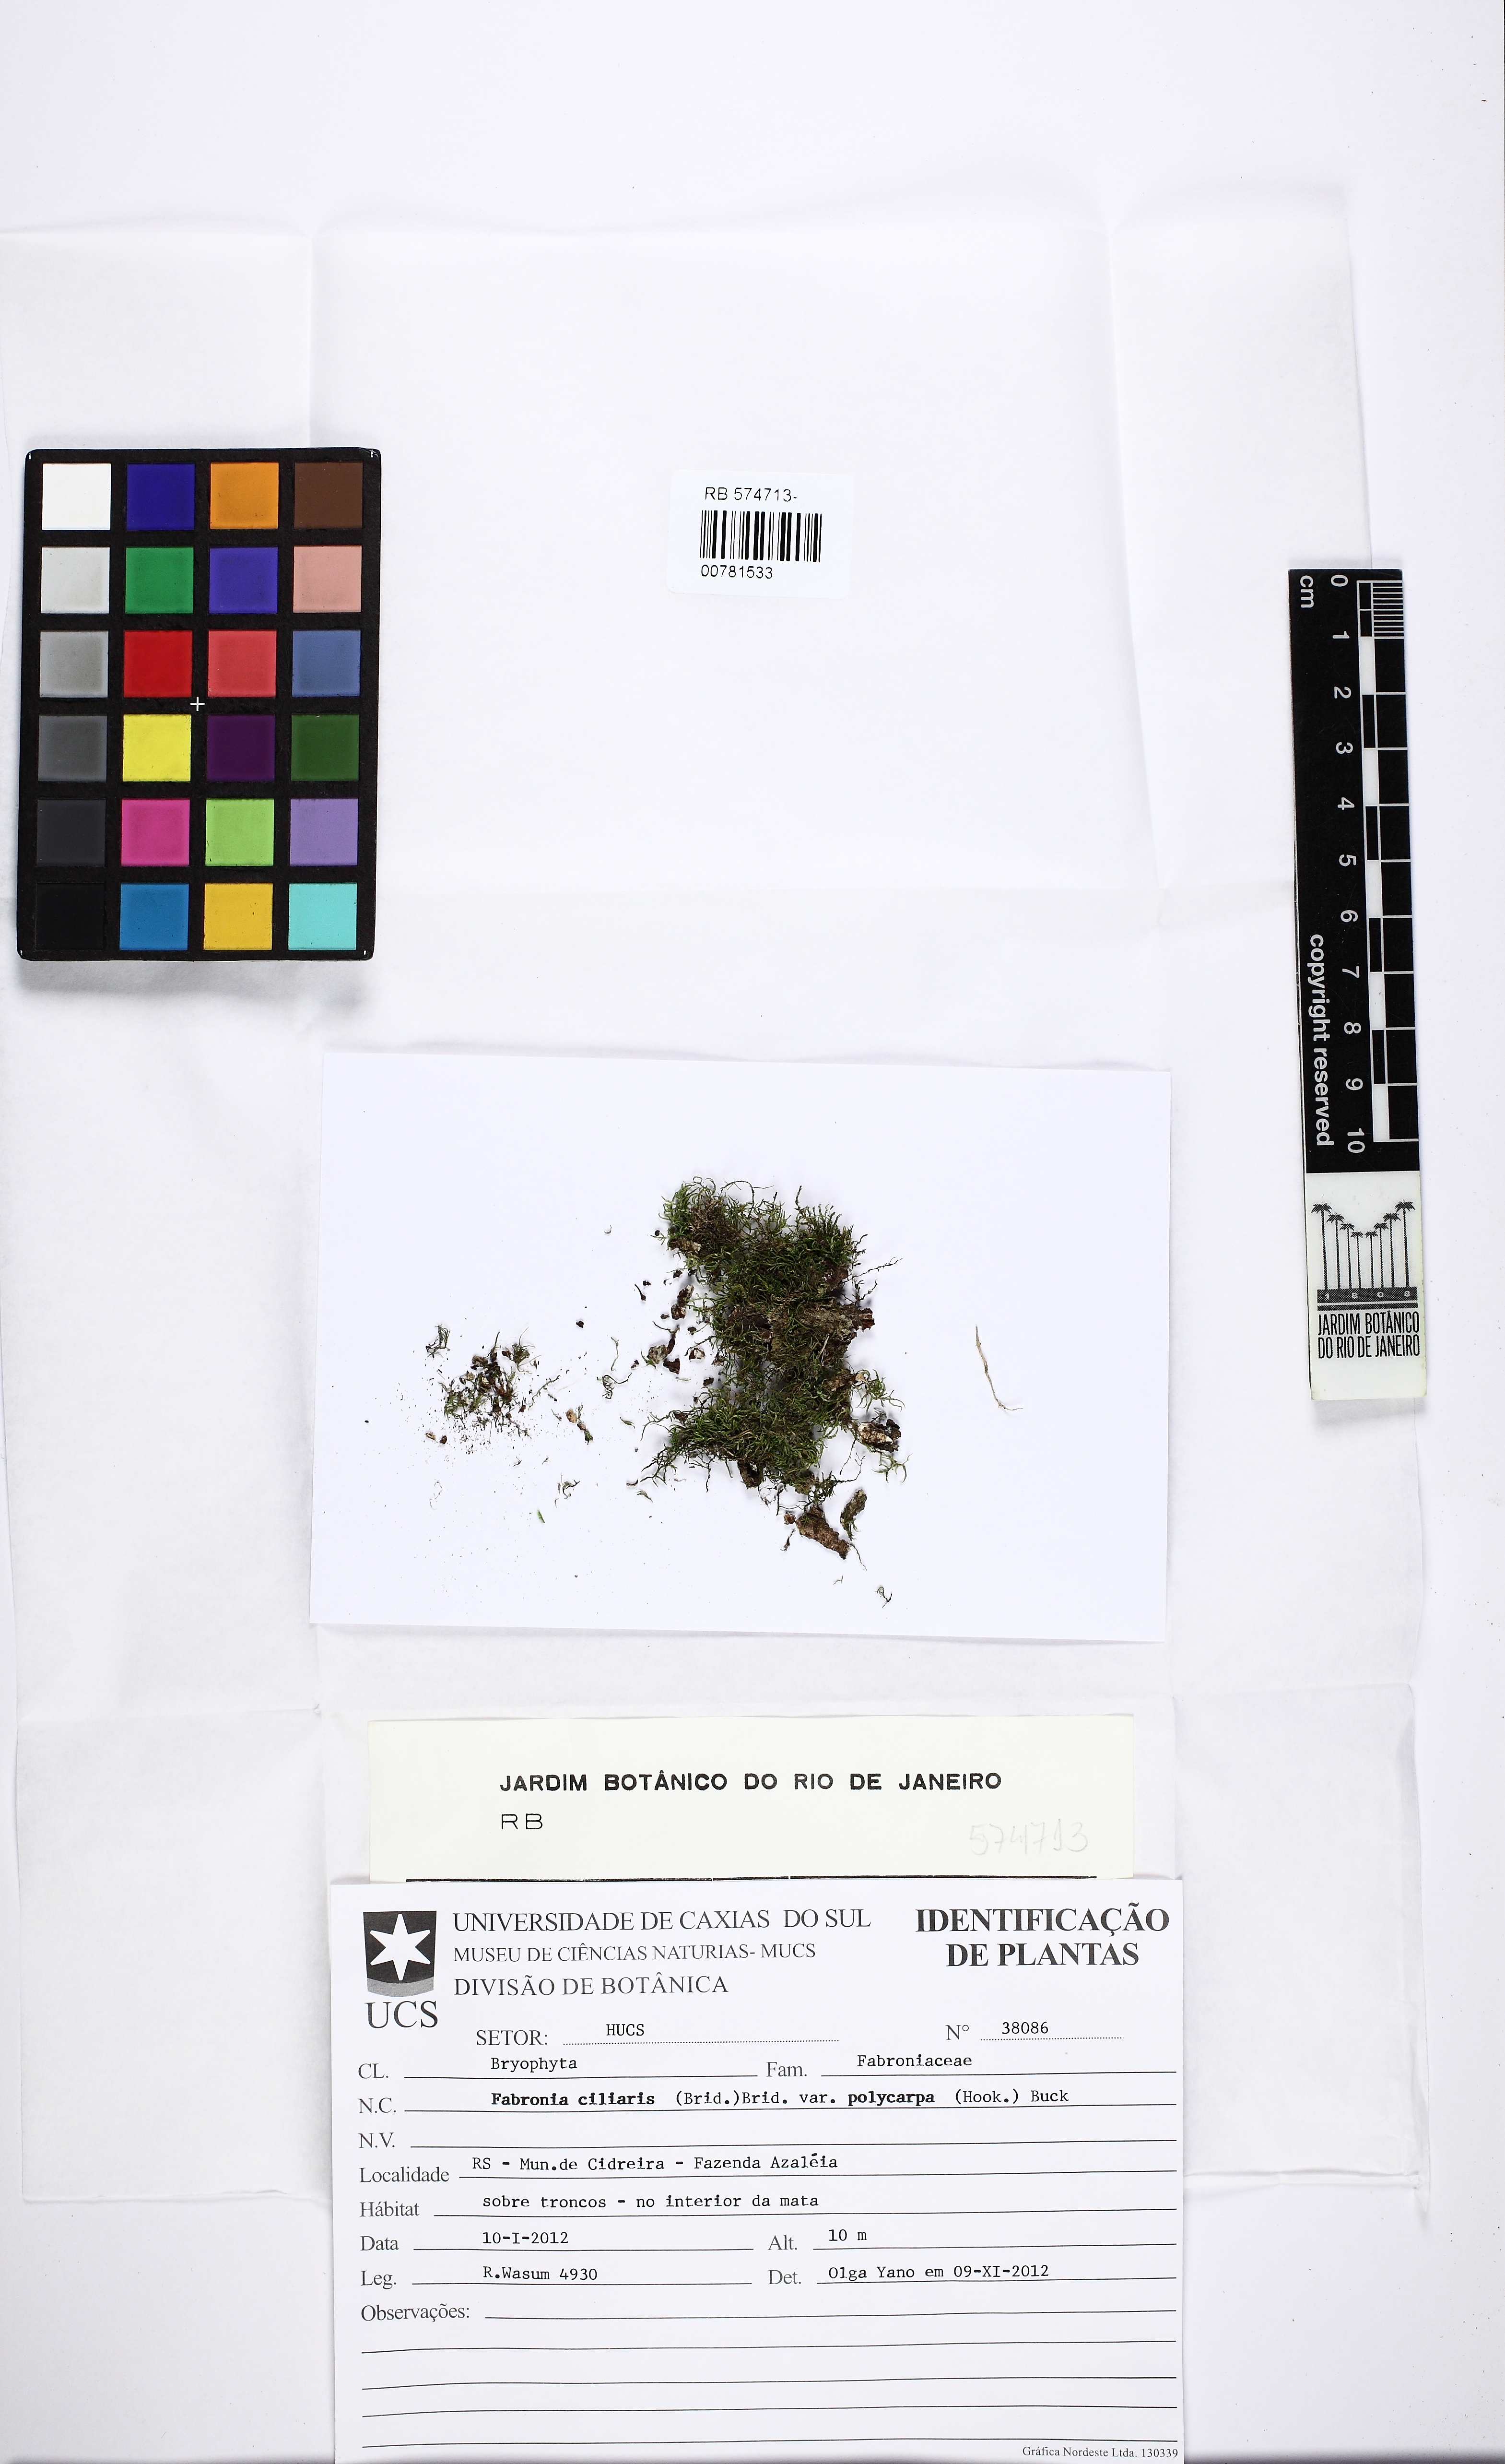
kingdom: Plantae
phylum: Bryophyta
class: Bryopsida
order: Hypnales
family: Fabroniaceae
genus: Fabronia
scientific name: Fabronia ciliaris
